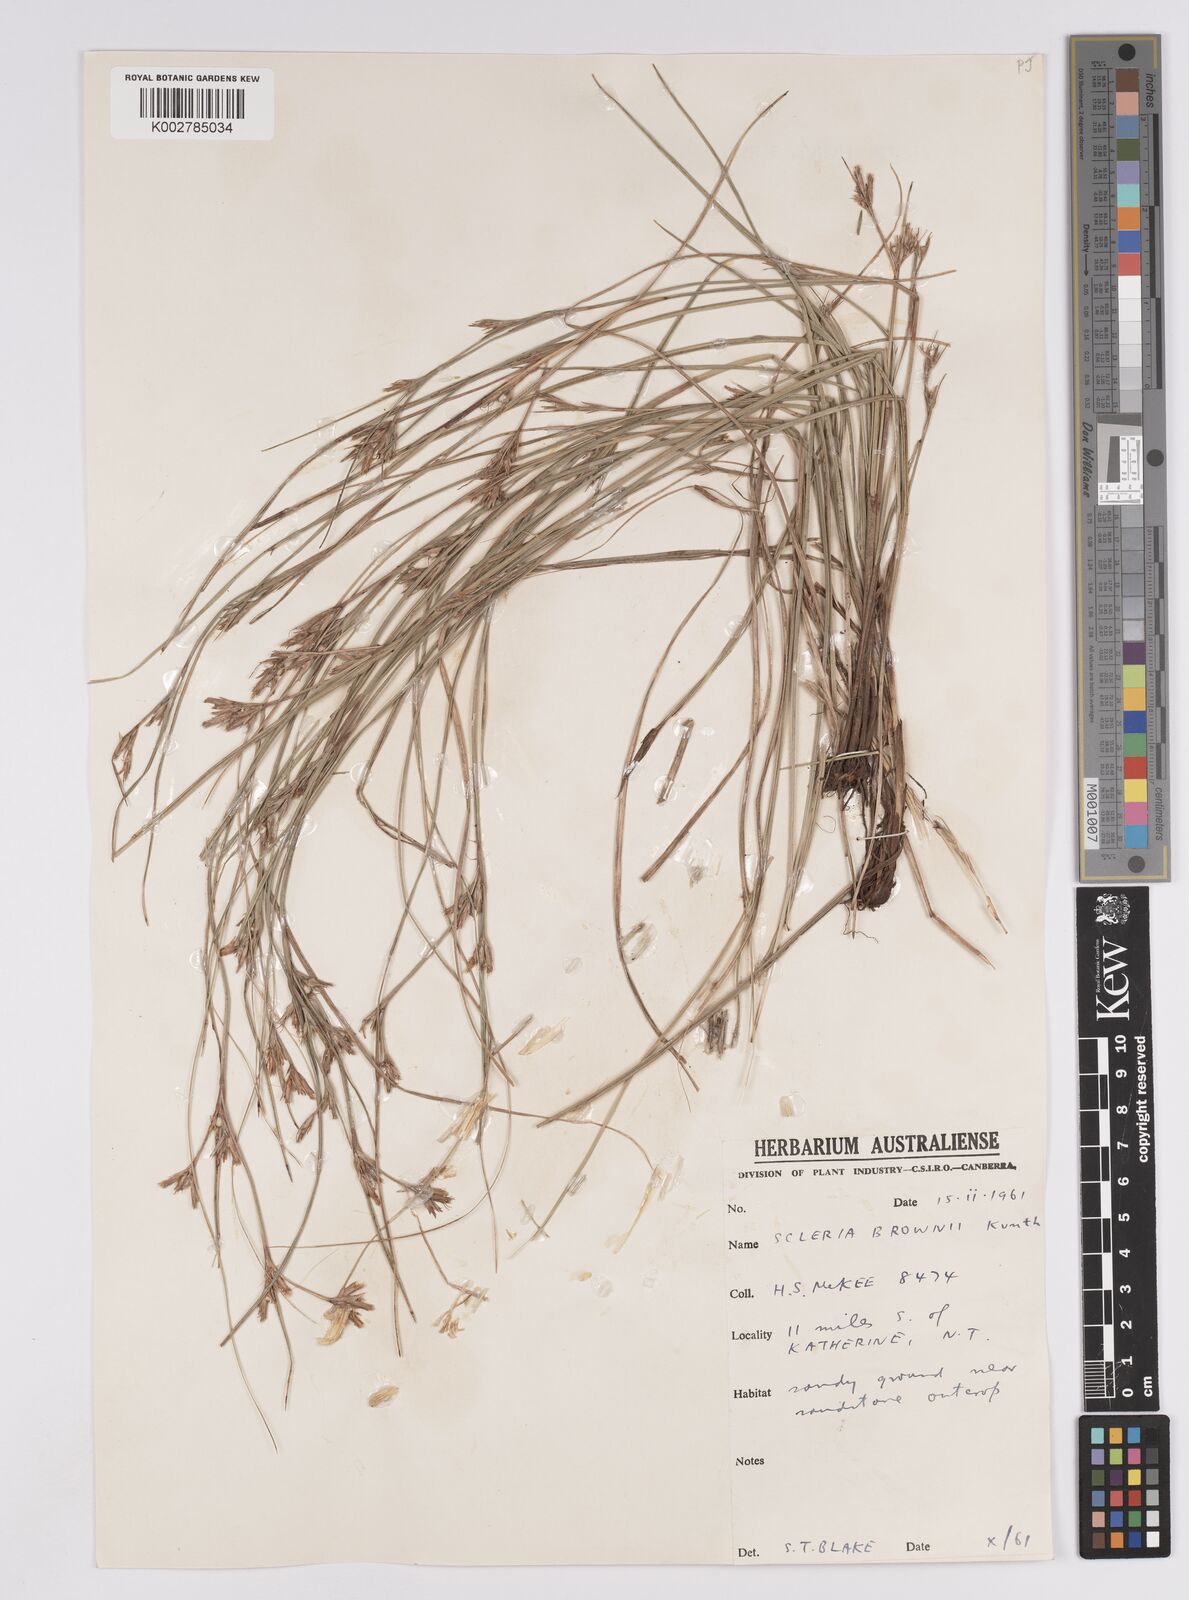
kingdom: Plantae
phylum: Tracheophyta
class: Liliopsida
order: Poales
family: Cyperaceae
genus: Scleria
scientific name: Scleria brownii
